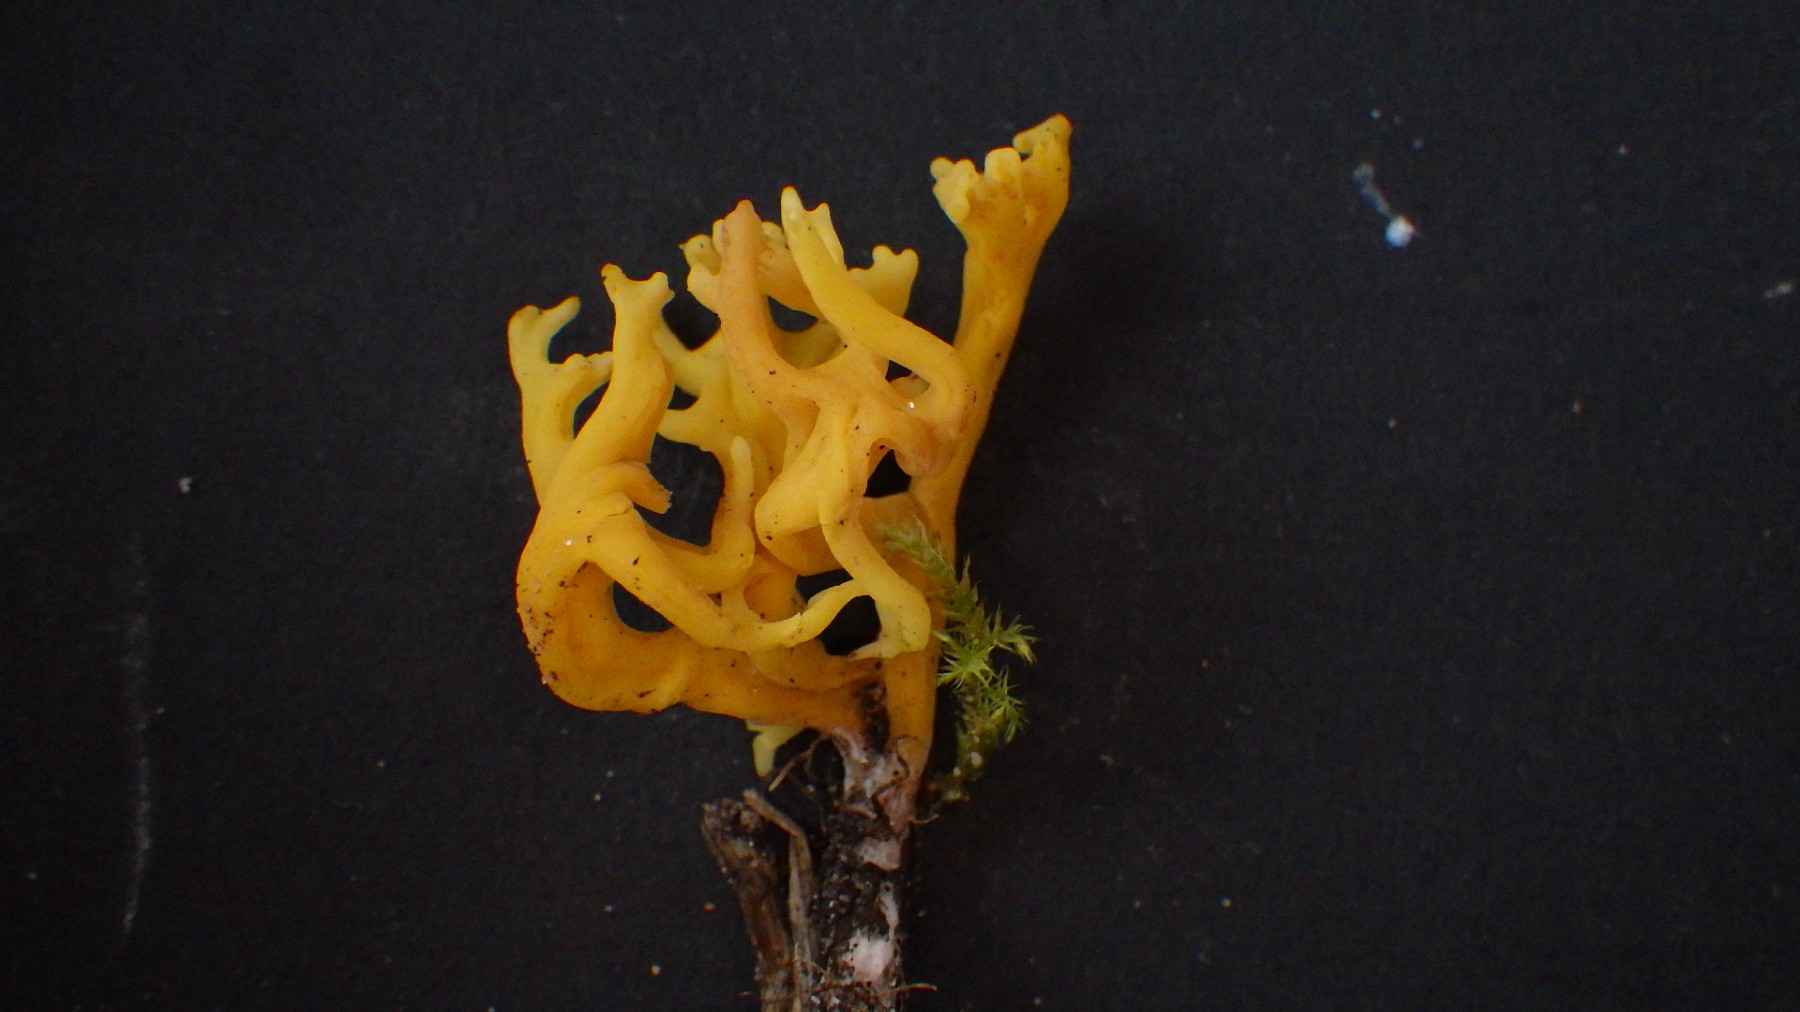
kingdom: Fungi
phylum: Basidiomycota
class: Agaricomycetes
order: Agaricales
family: Clavariaceae
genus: Clavulinopsis
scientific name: Clavulinopsis corniculata
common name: eng-køllesvamp
